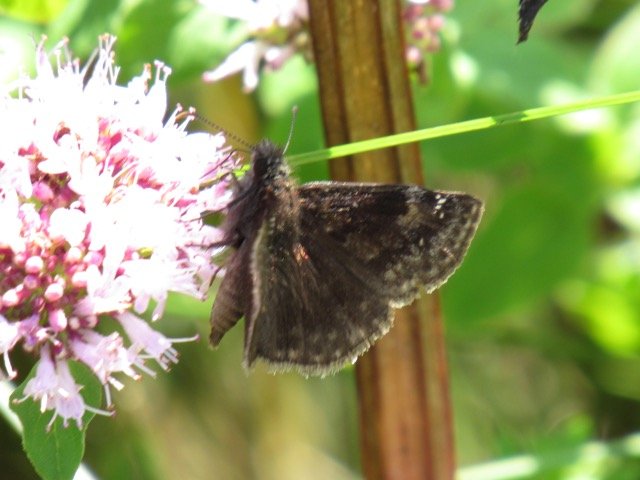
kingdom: Animalia
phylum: Arthropoda
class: Insecta
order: Lepidoptera
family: Hesperiidae
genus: Gesta
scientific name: Gesta
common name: Wild Indigo Duskywing
